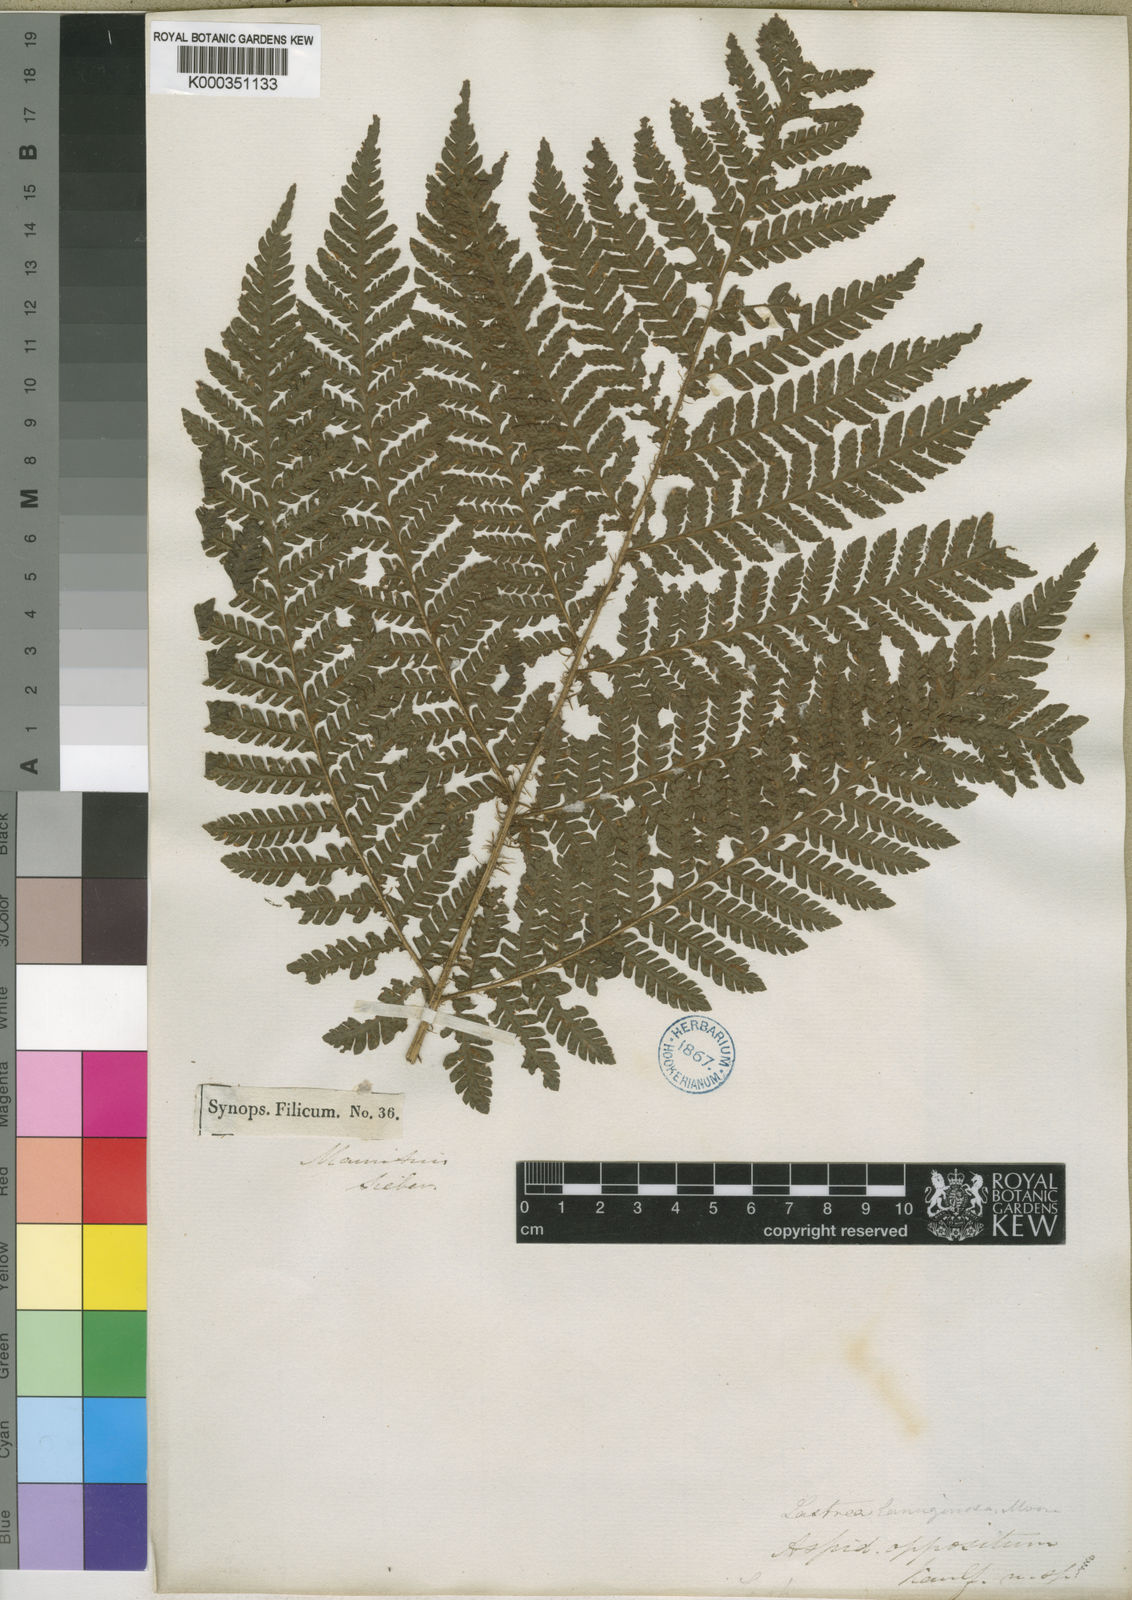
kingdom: Plantae
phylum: Tracheophyta
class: Polypodiopsida
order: Polypodiales
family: Dryopteridaceae
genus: Megalastrum
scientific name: Megalastrum oppositum
